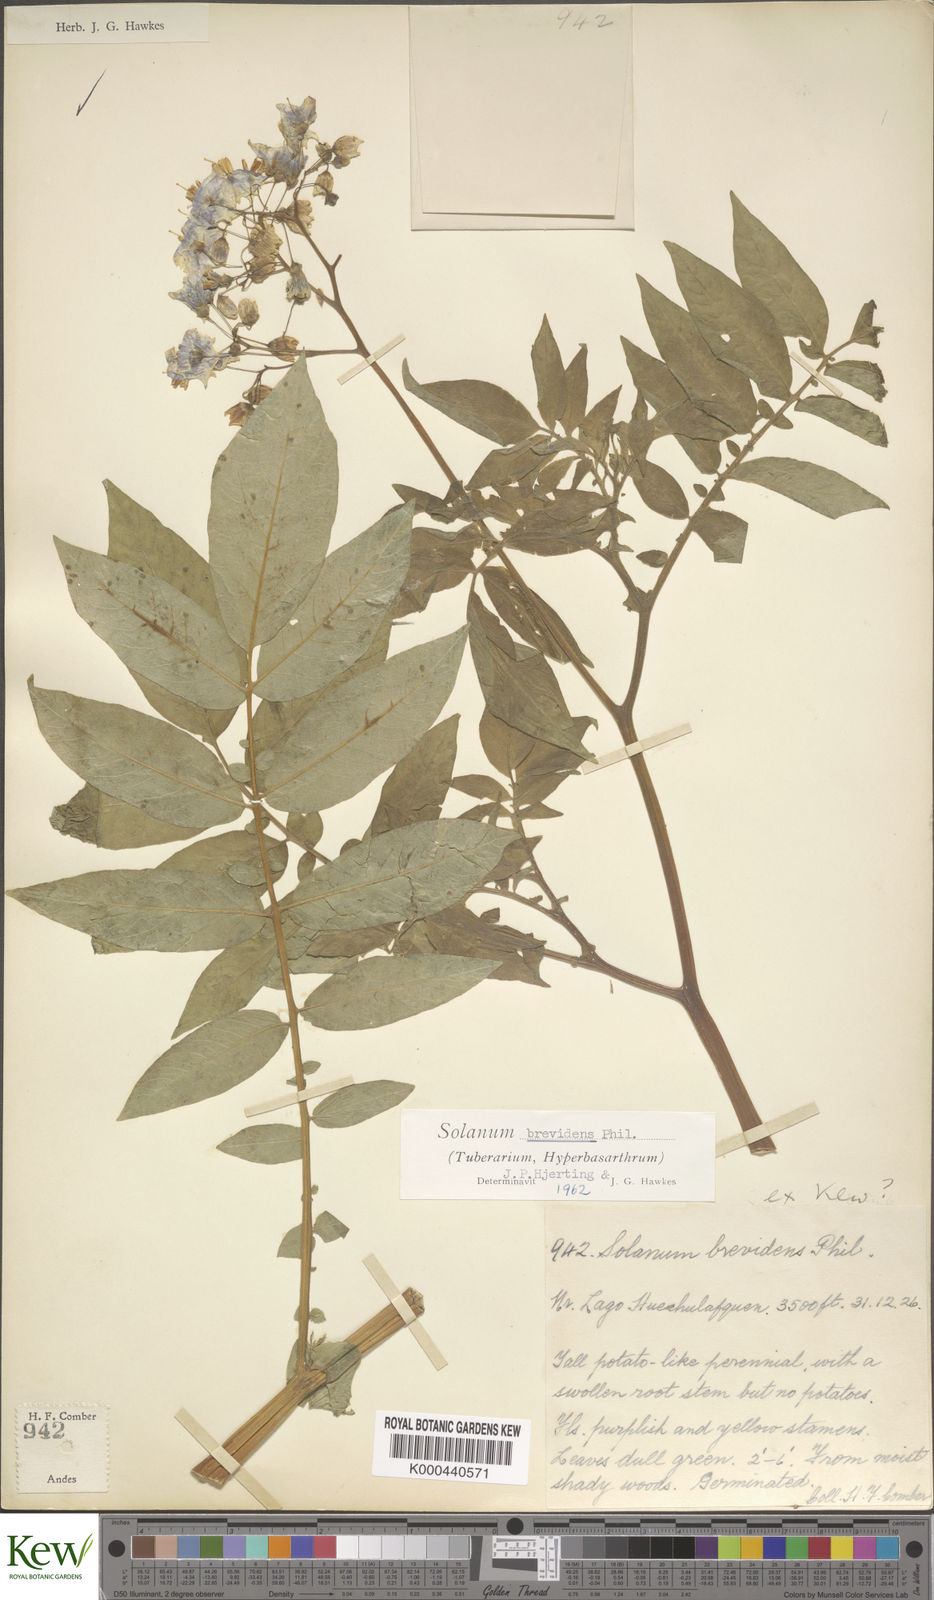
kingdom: Plantae
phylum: Tracheophyta
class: Magnoliopsida
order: Solanales
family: Solanaceae
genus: Solanum
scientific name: Solanum palustre
